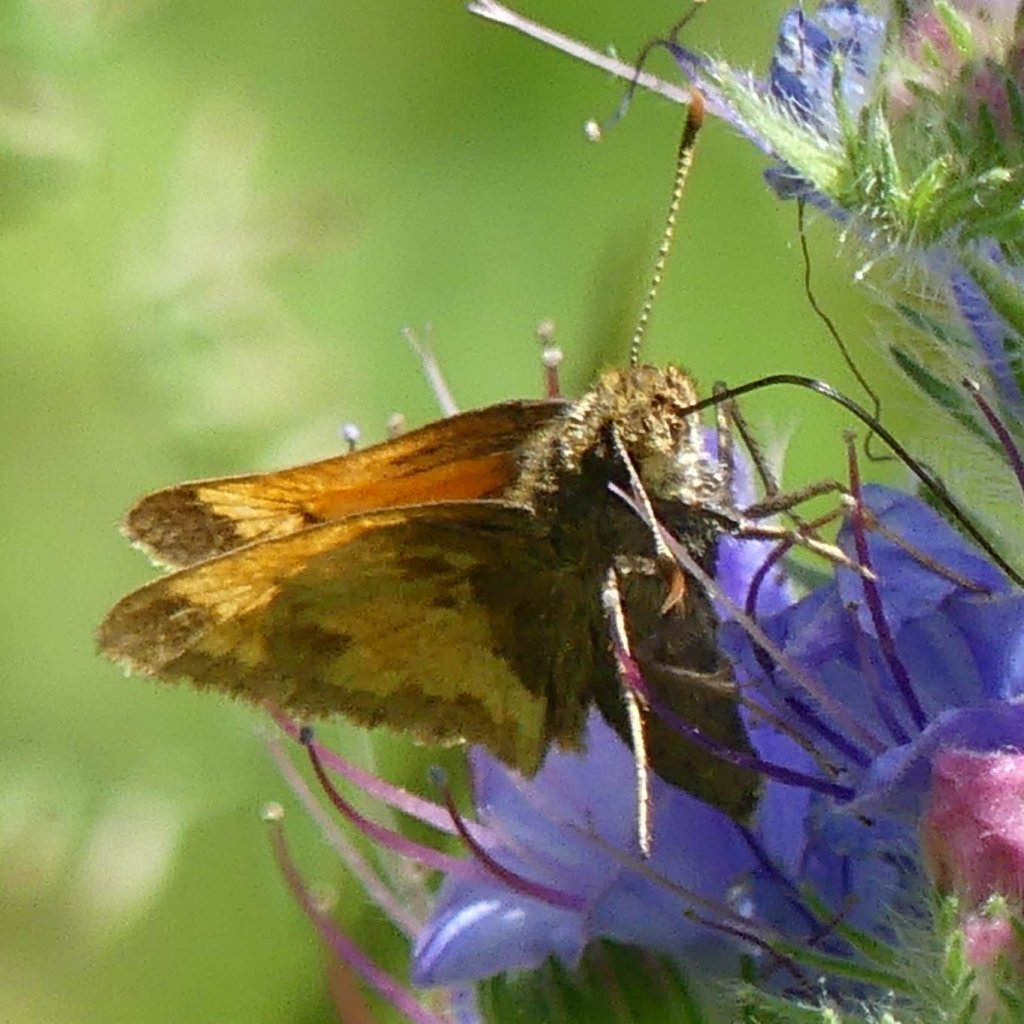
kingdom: Animalia
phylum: Arthropoda
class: Insecta
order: Lepidoptera
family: Hesperiidae
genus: Lon
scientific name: Lon hobomok
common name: Hobomok Skipper
